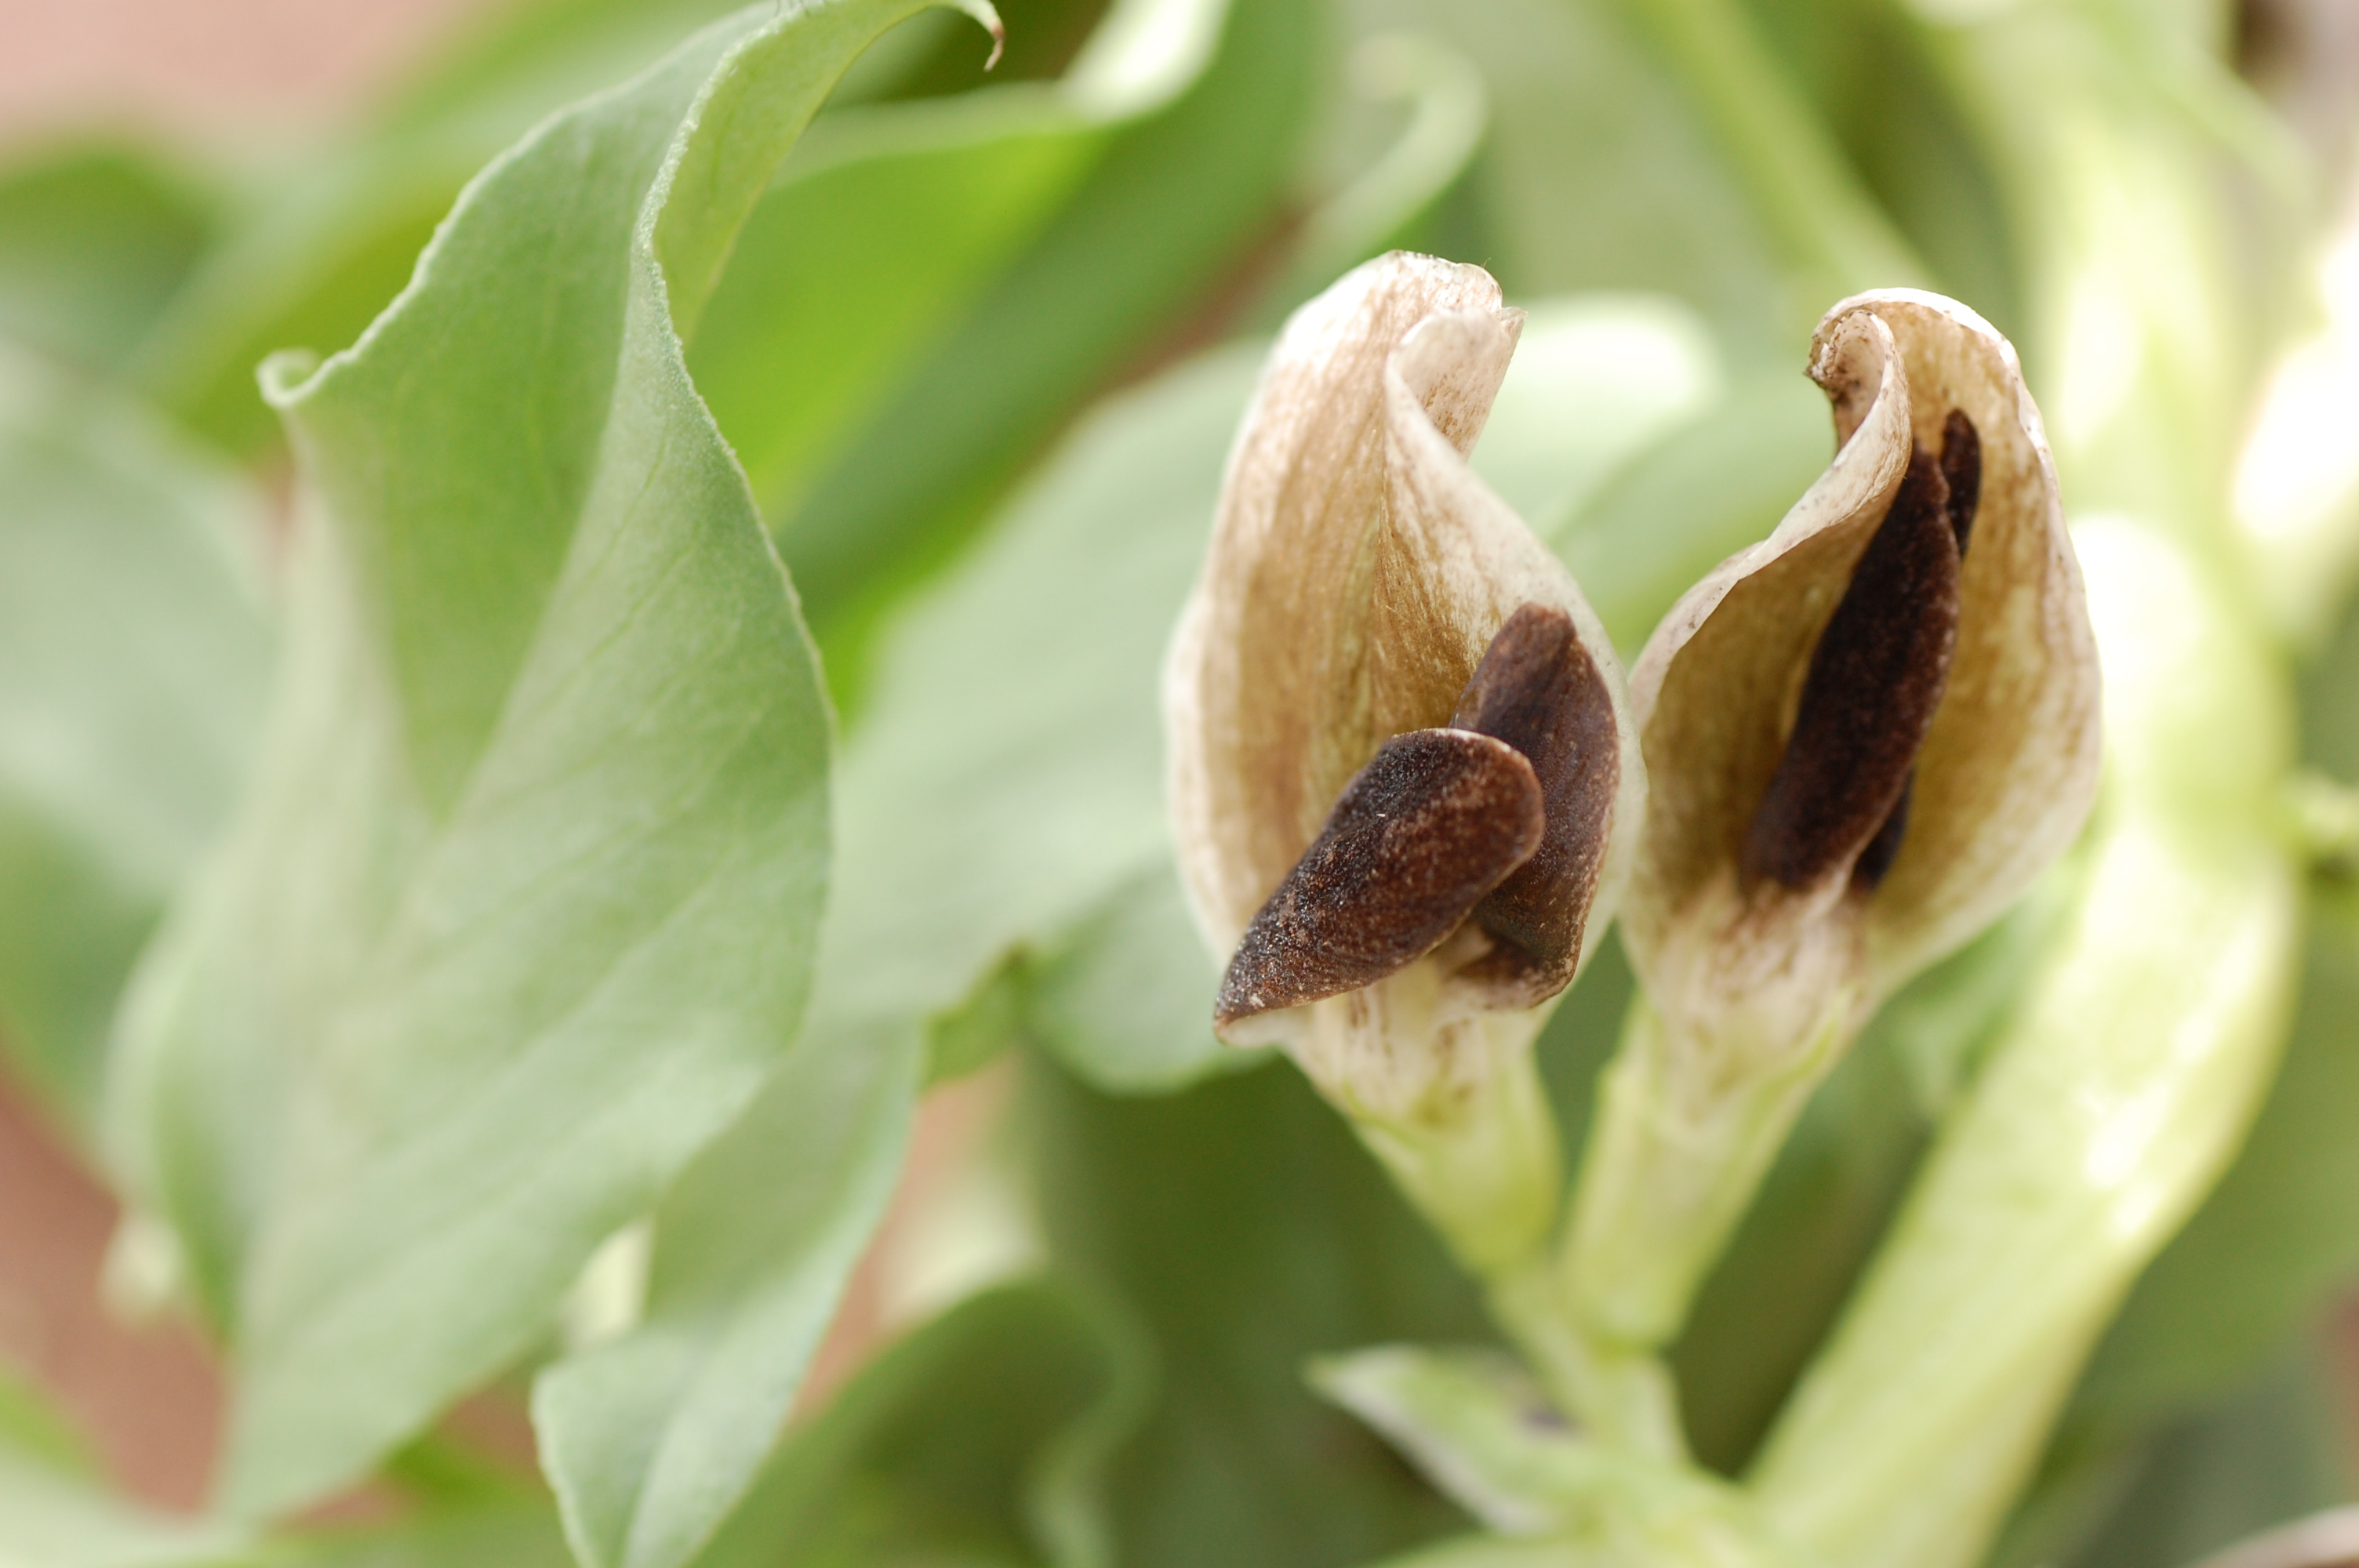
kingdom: Plantae
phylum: Tracheophyta
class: Magnoliopsida
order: Fabales
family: Fabaceae
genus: Vicia
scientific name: Vicia faba
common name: Broad bean
